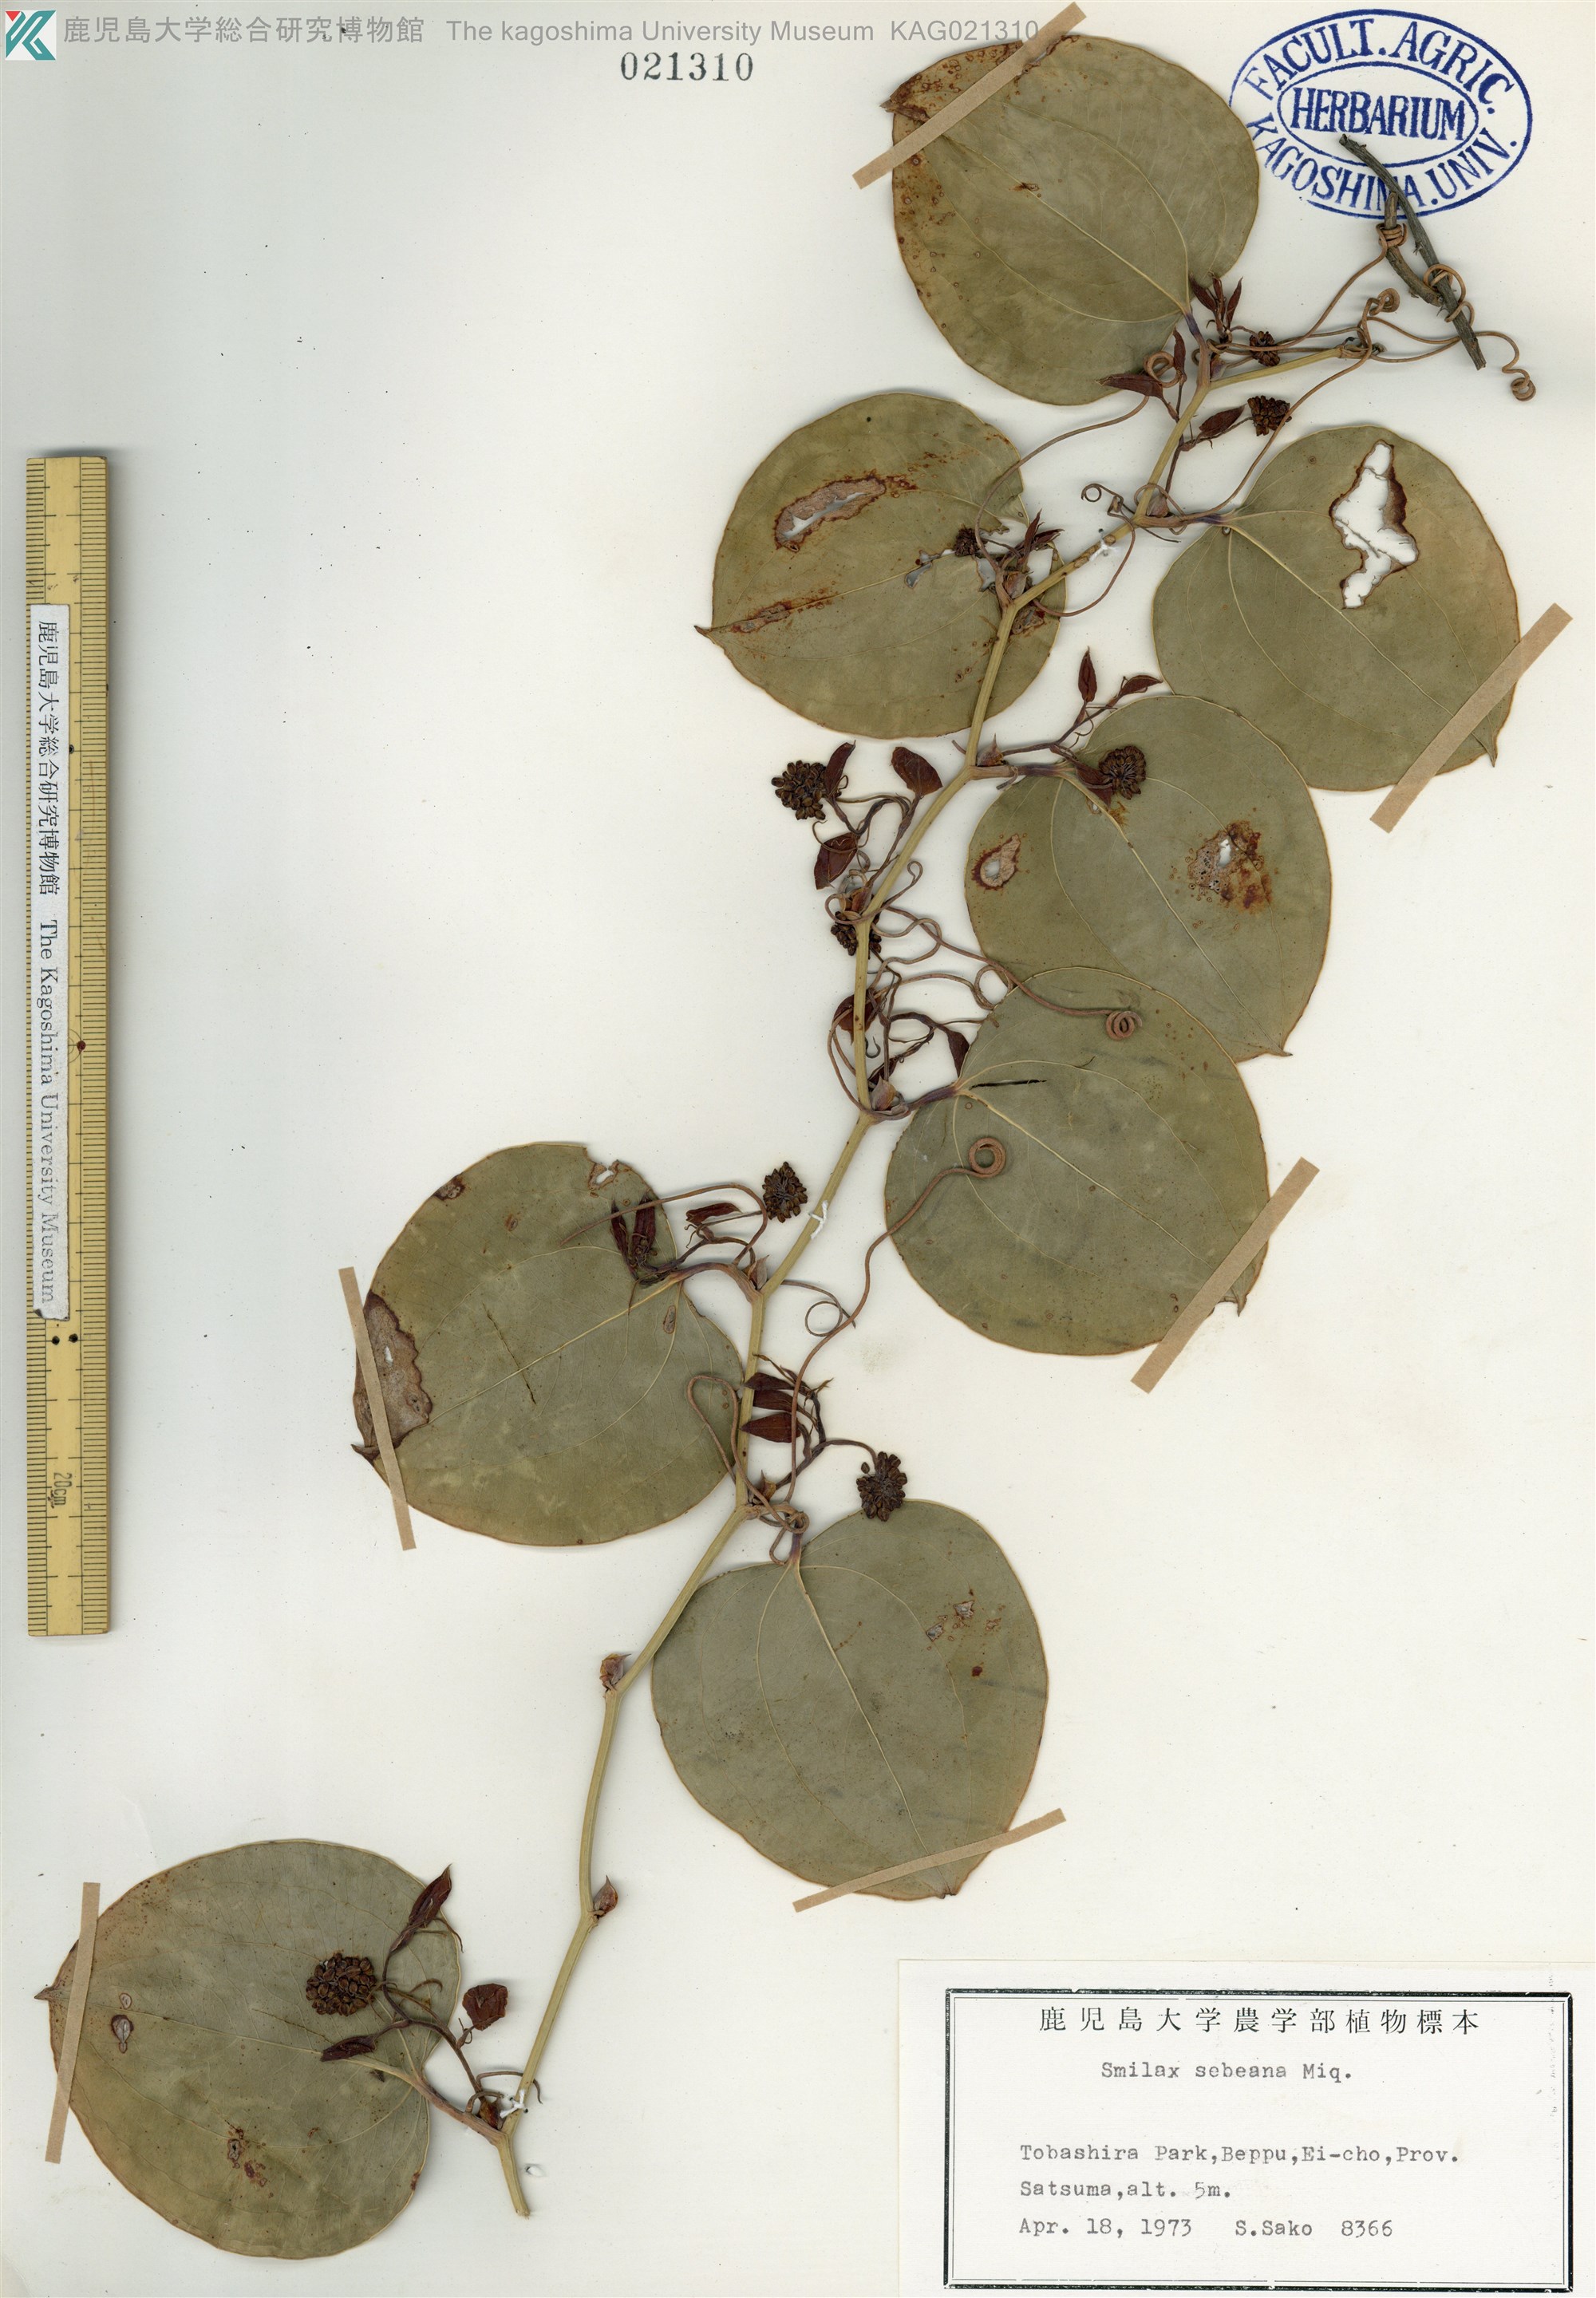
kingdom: Plantae
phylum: Tracheophyta
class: Liliopsida
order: Liliales
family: Smilacaceae
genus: Smilax
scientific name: Smilax sebeana
